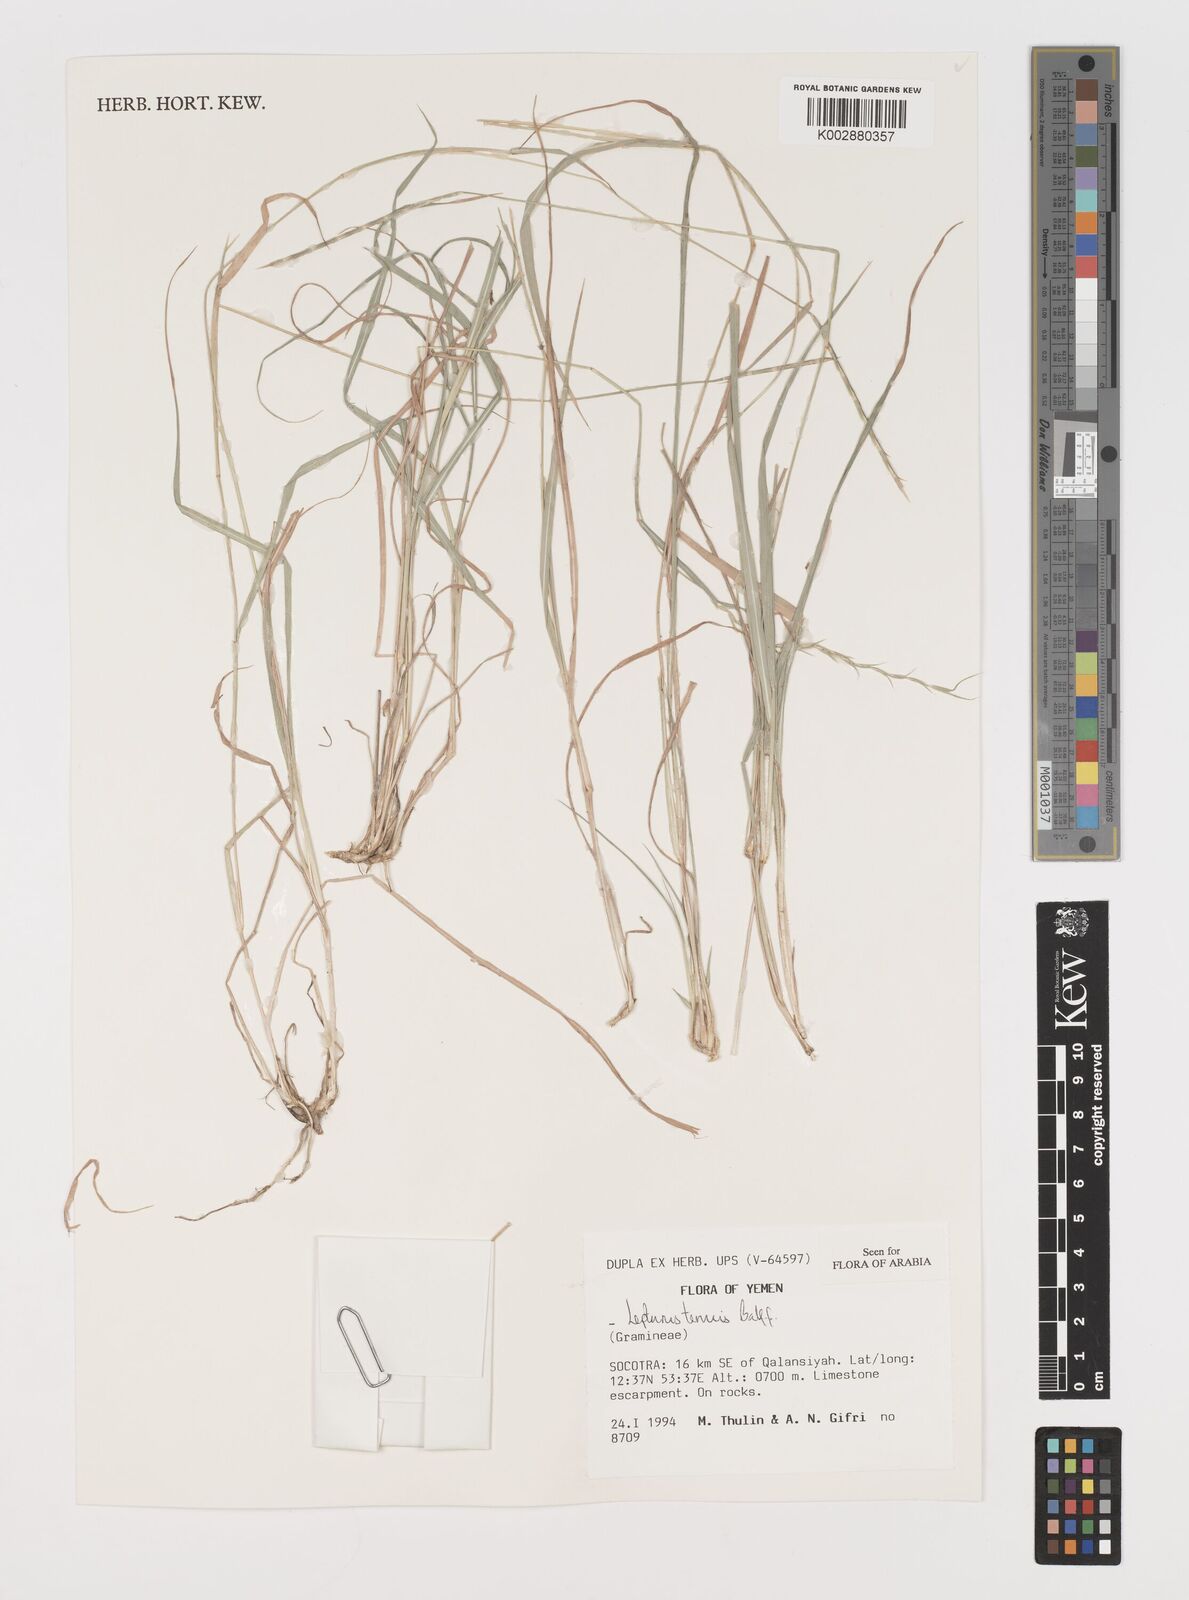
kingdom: Plantae
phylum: Tracheophyta
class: Liliopsida
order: Poales
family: Poaceae
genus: Lepturus
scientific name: Lepturus tenuis
